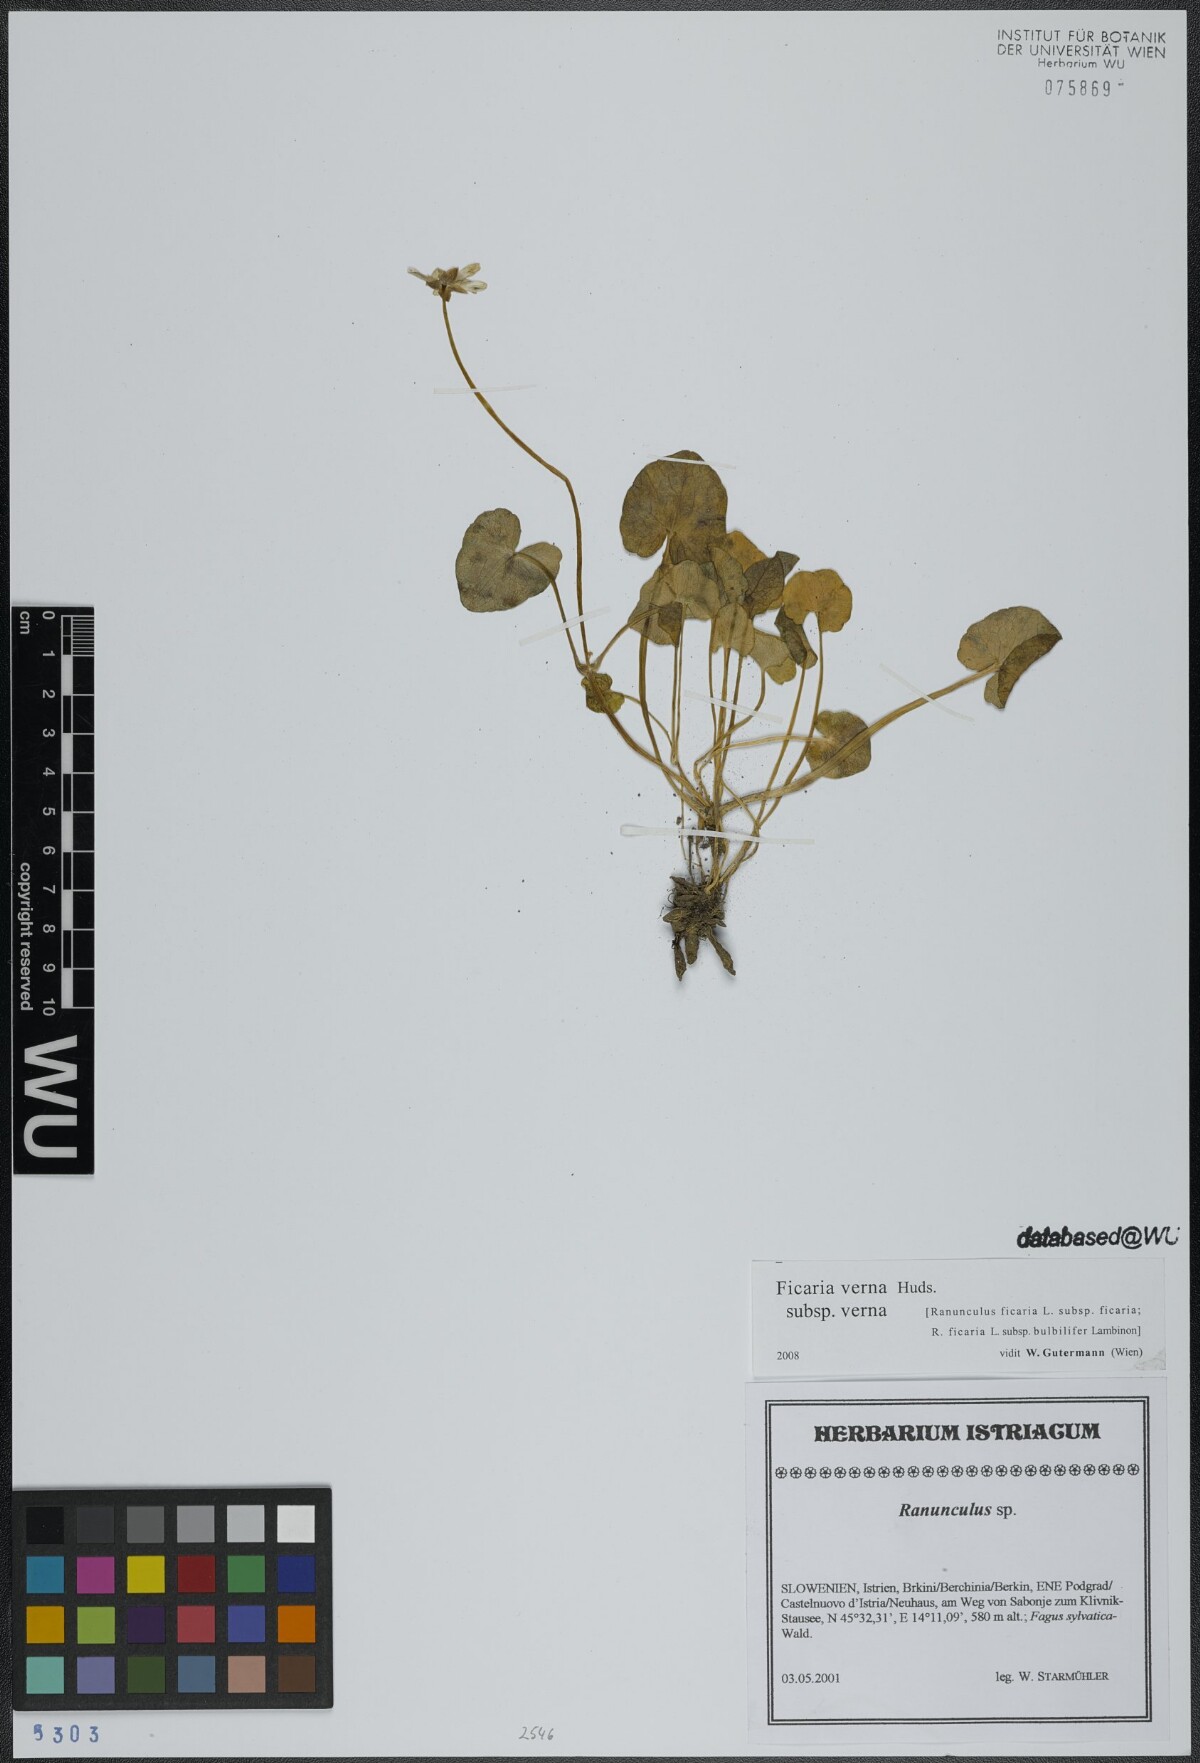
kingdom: Plantae
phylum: Tracheophyta
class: Magnoliopsida
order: Ranunculales
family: Ranunculaceae
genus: Ficaria
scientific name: Ficaria verna
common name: Lesser celandine
